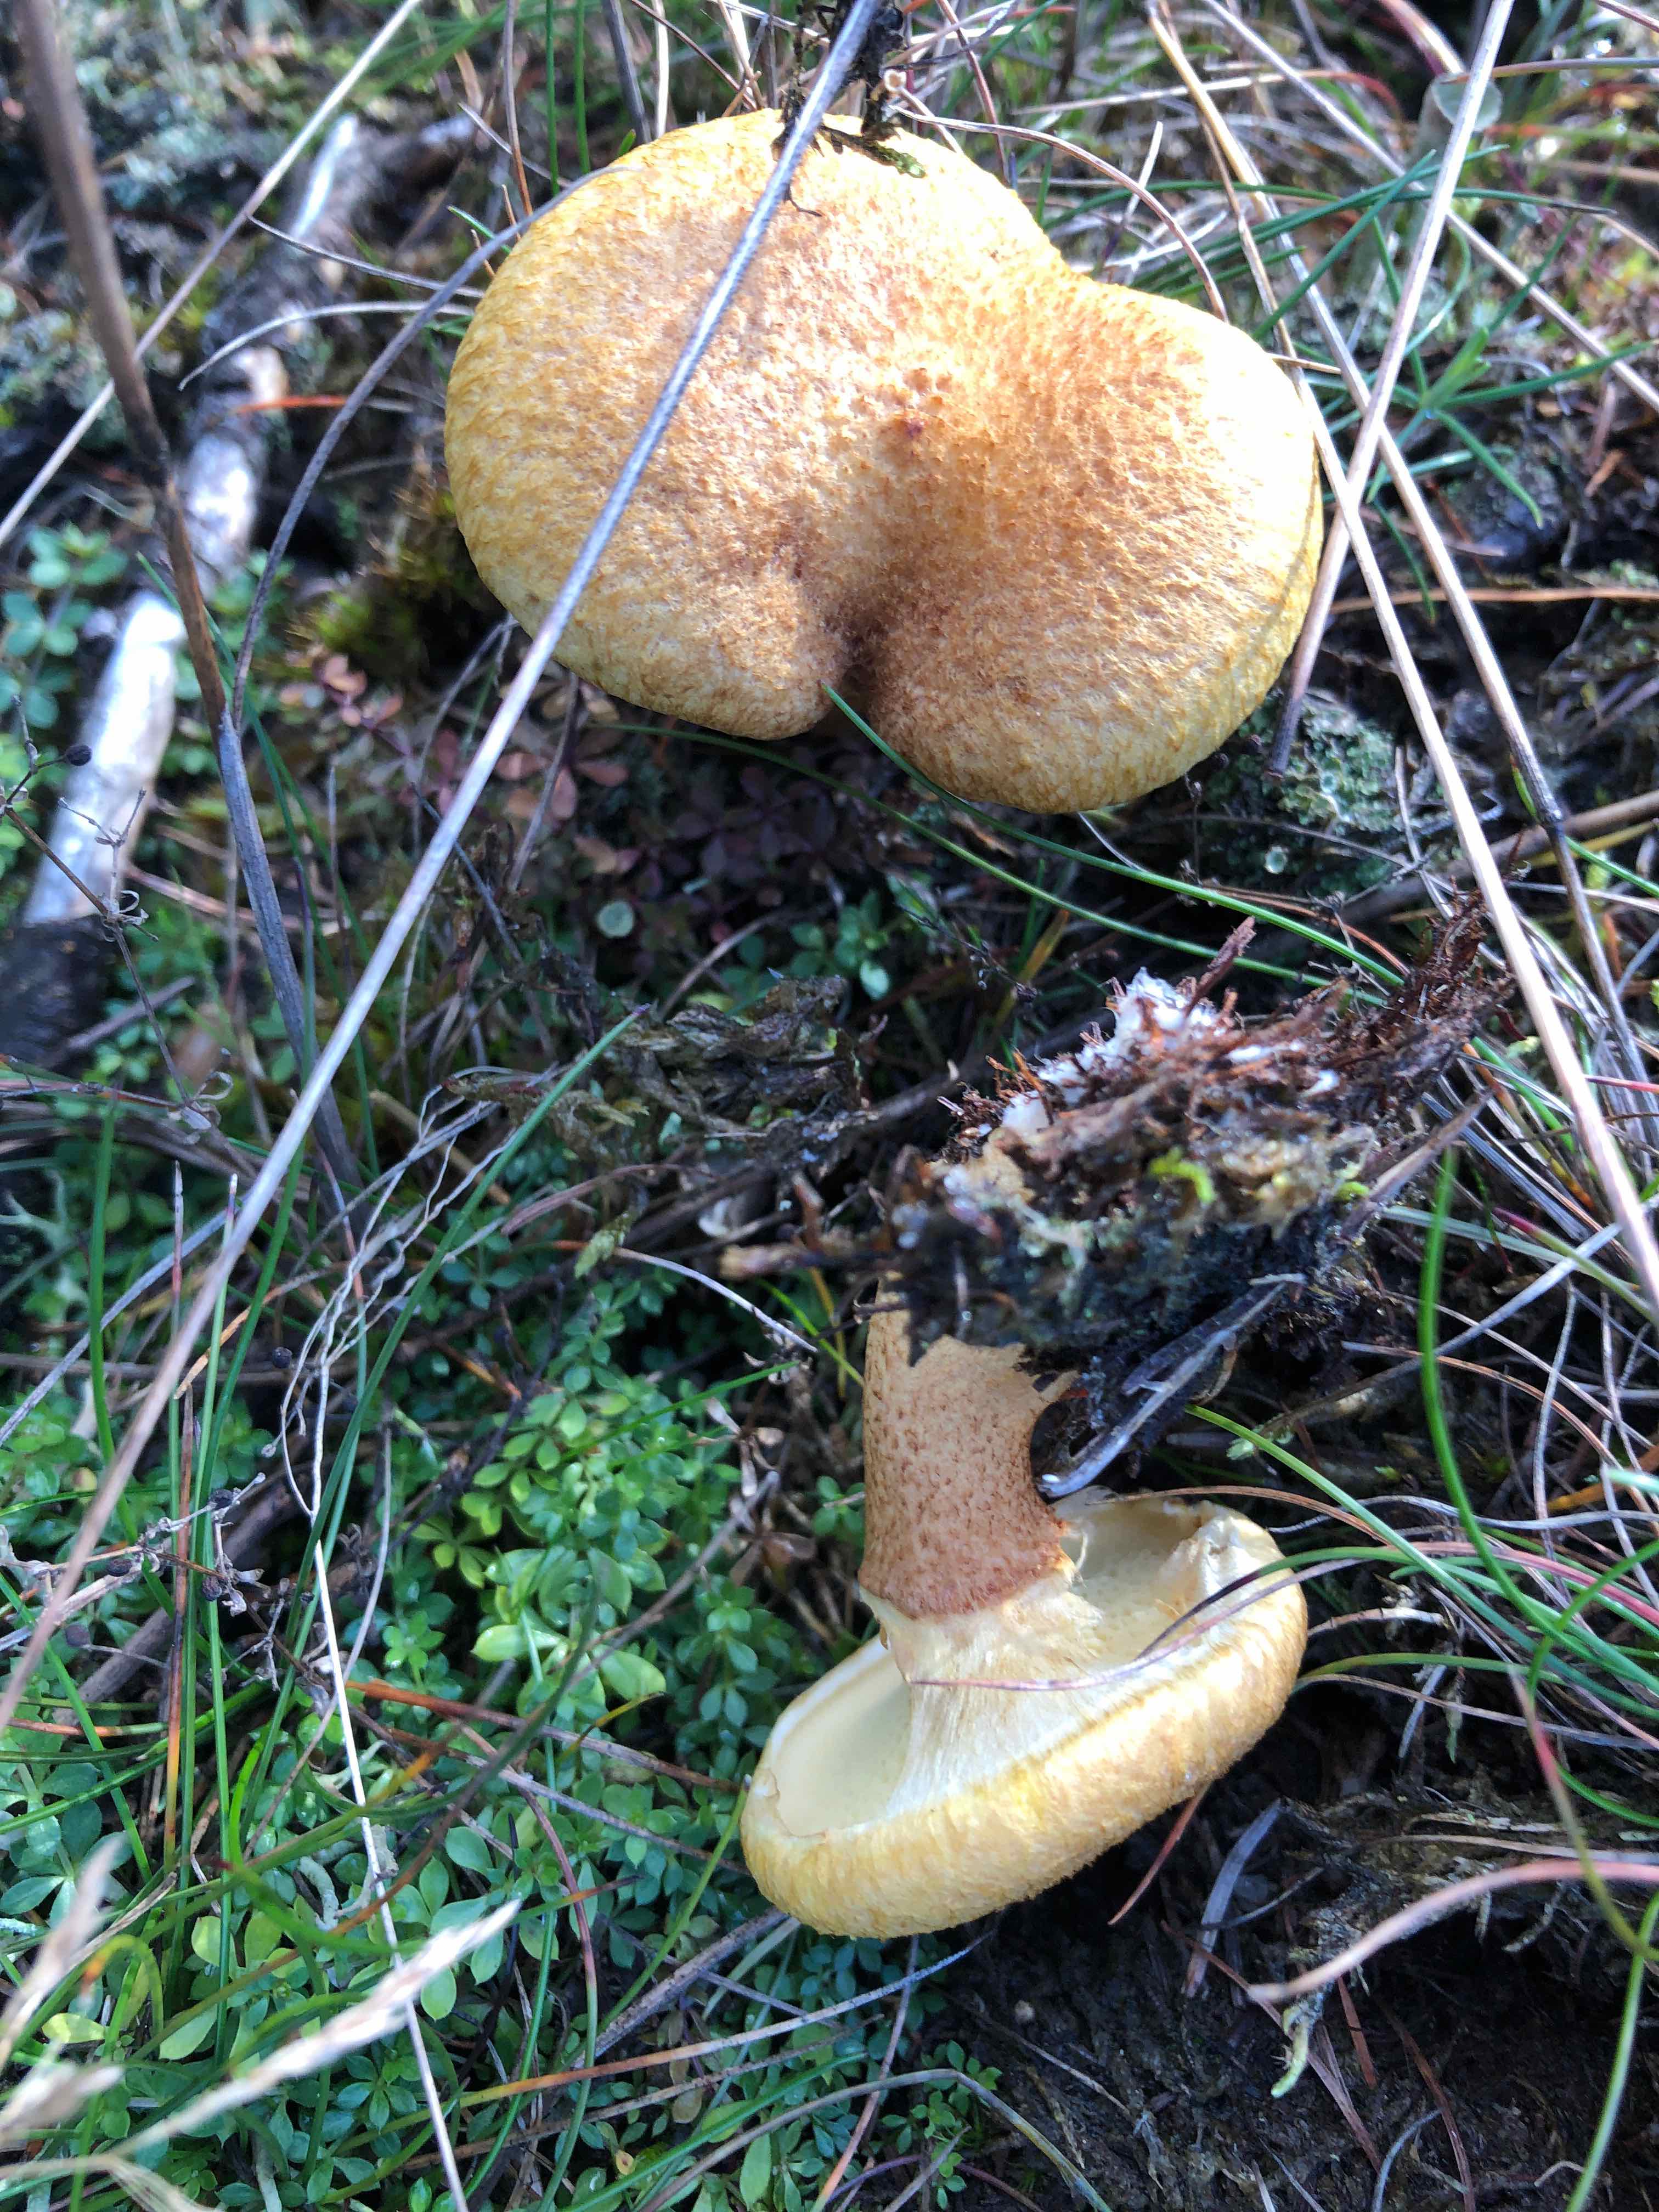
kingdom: Fungi
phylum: Basidiomycota
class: Agaricomycetes
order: Boletales
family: Suillaceae
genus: Suillus
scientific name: Suillus cavipes
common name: hulstokket slimrørhat
